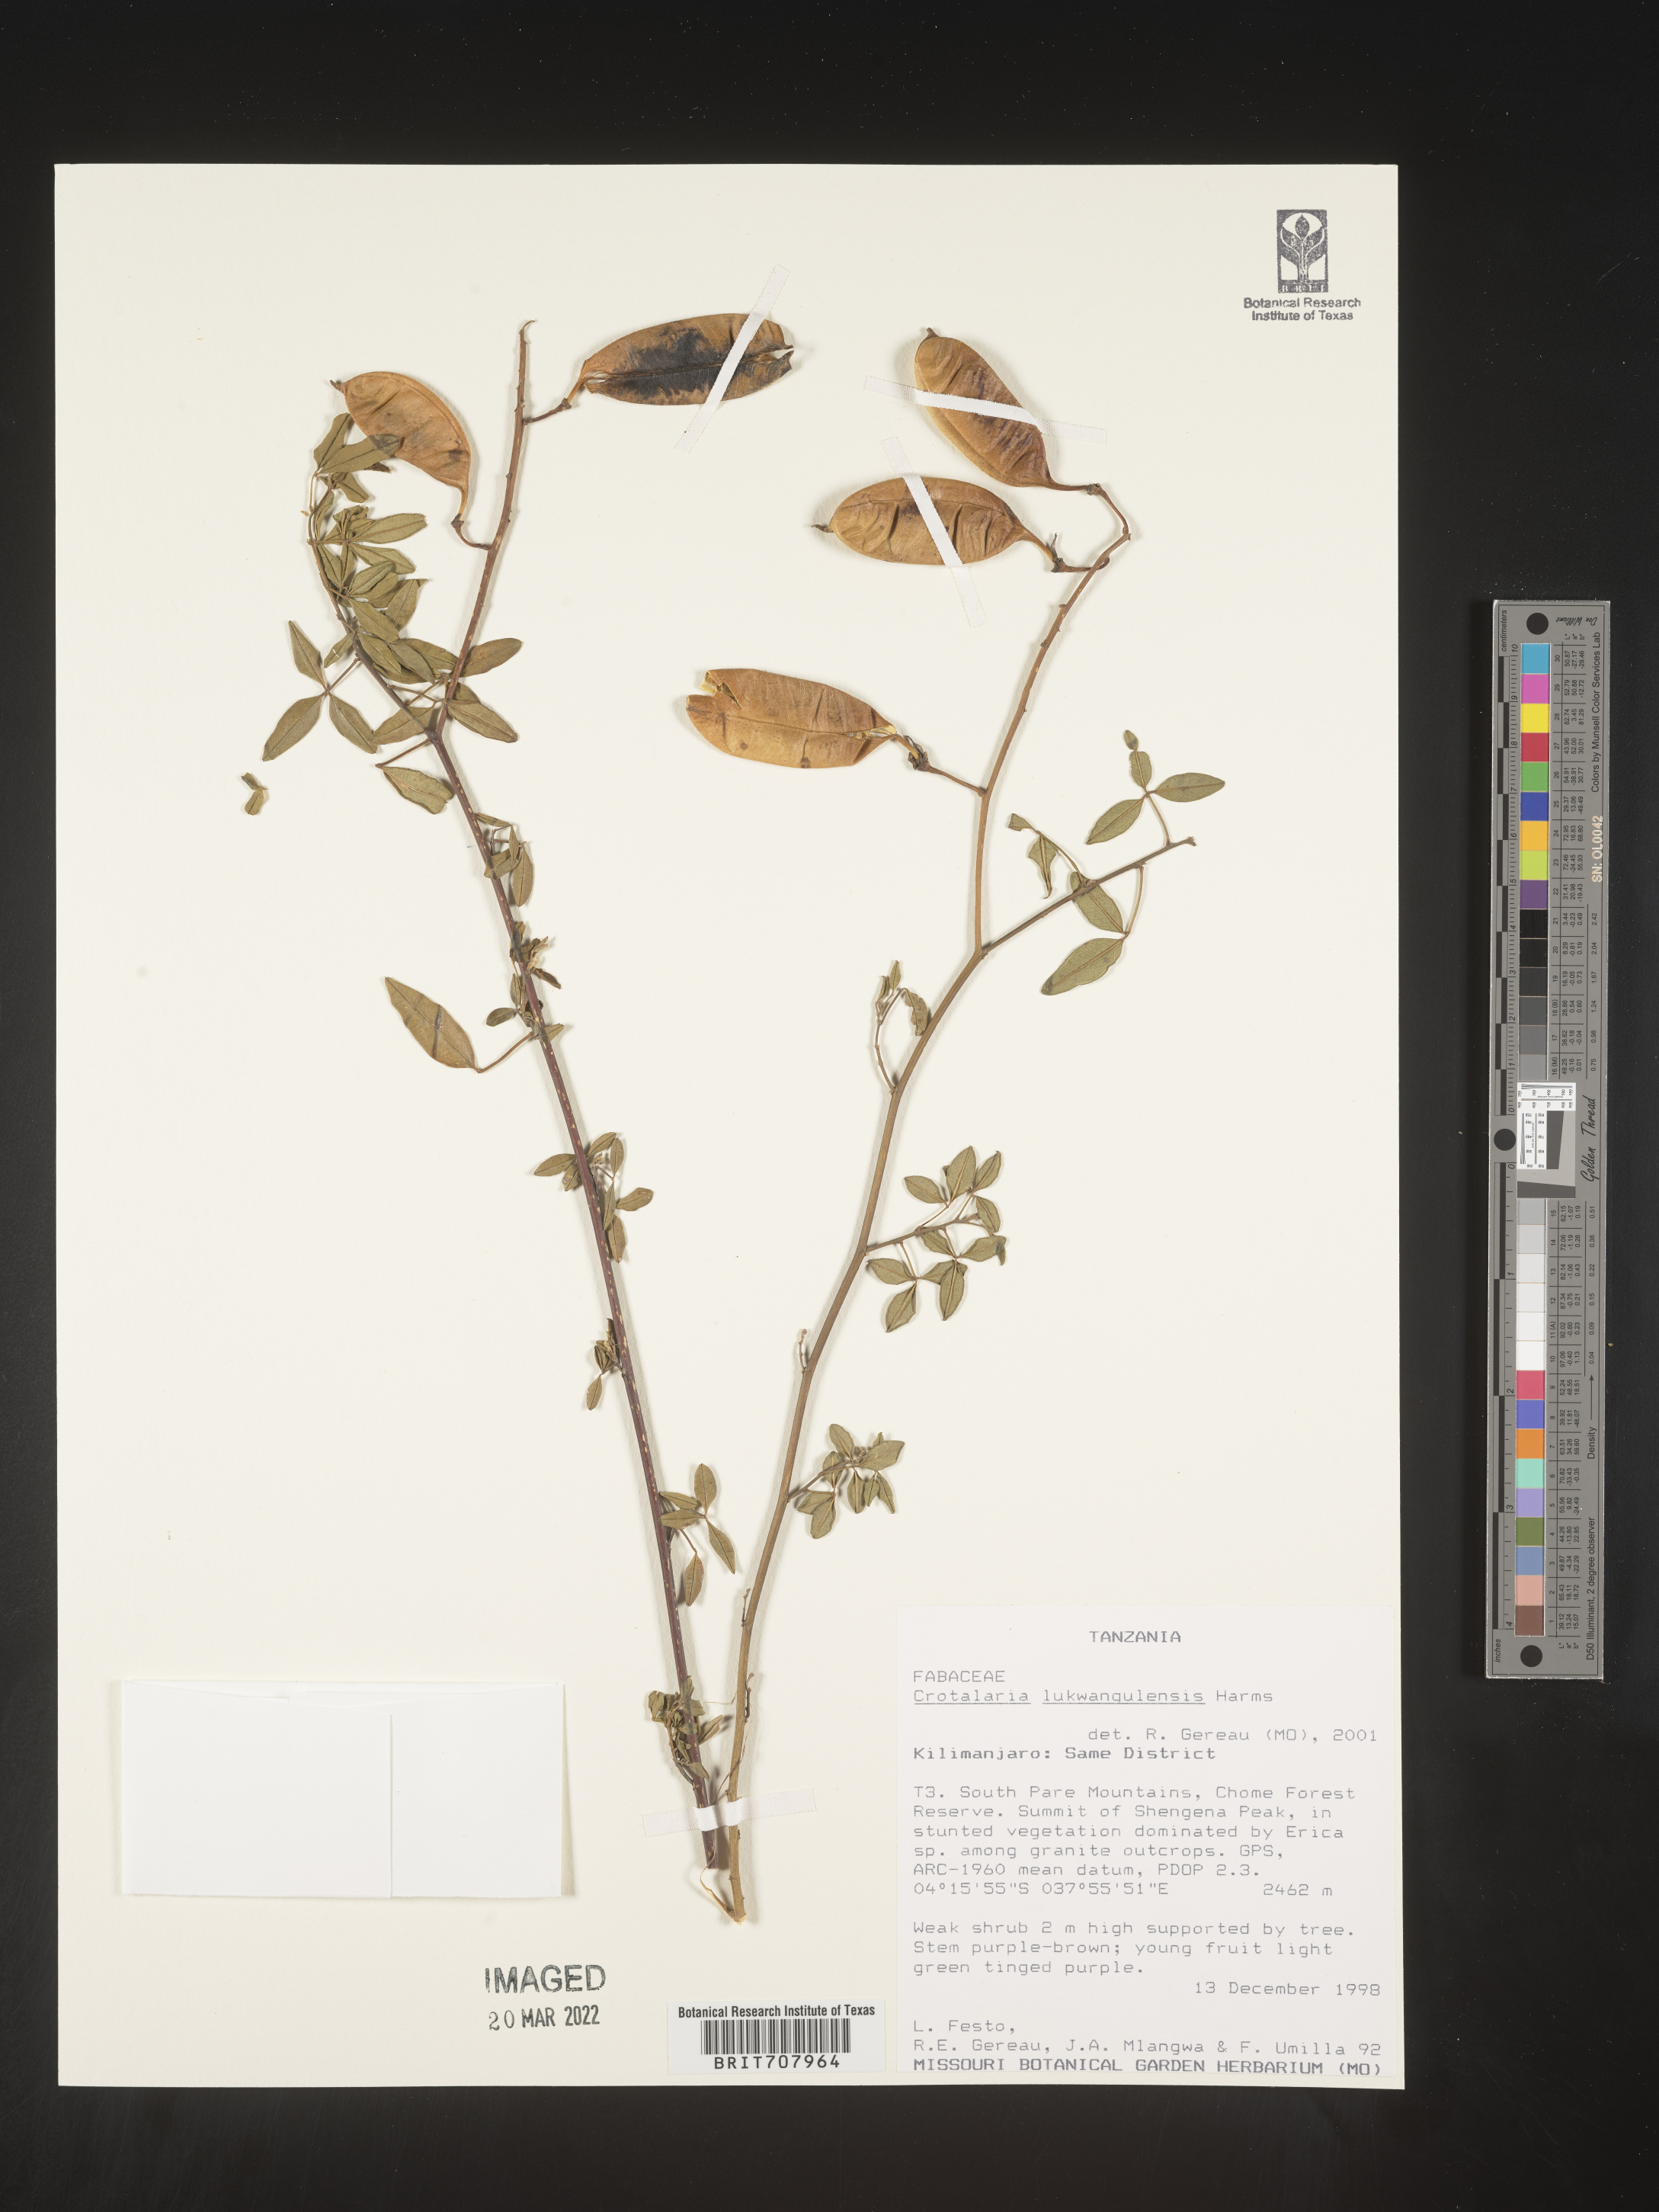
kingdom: Plantae
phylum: Tracheophyta
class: Magnoliopsida
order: Fabales
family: Fabaceae
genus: Crotalaria
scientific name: Crotalaria
